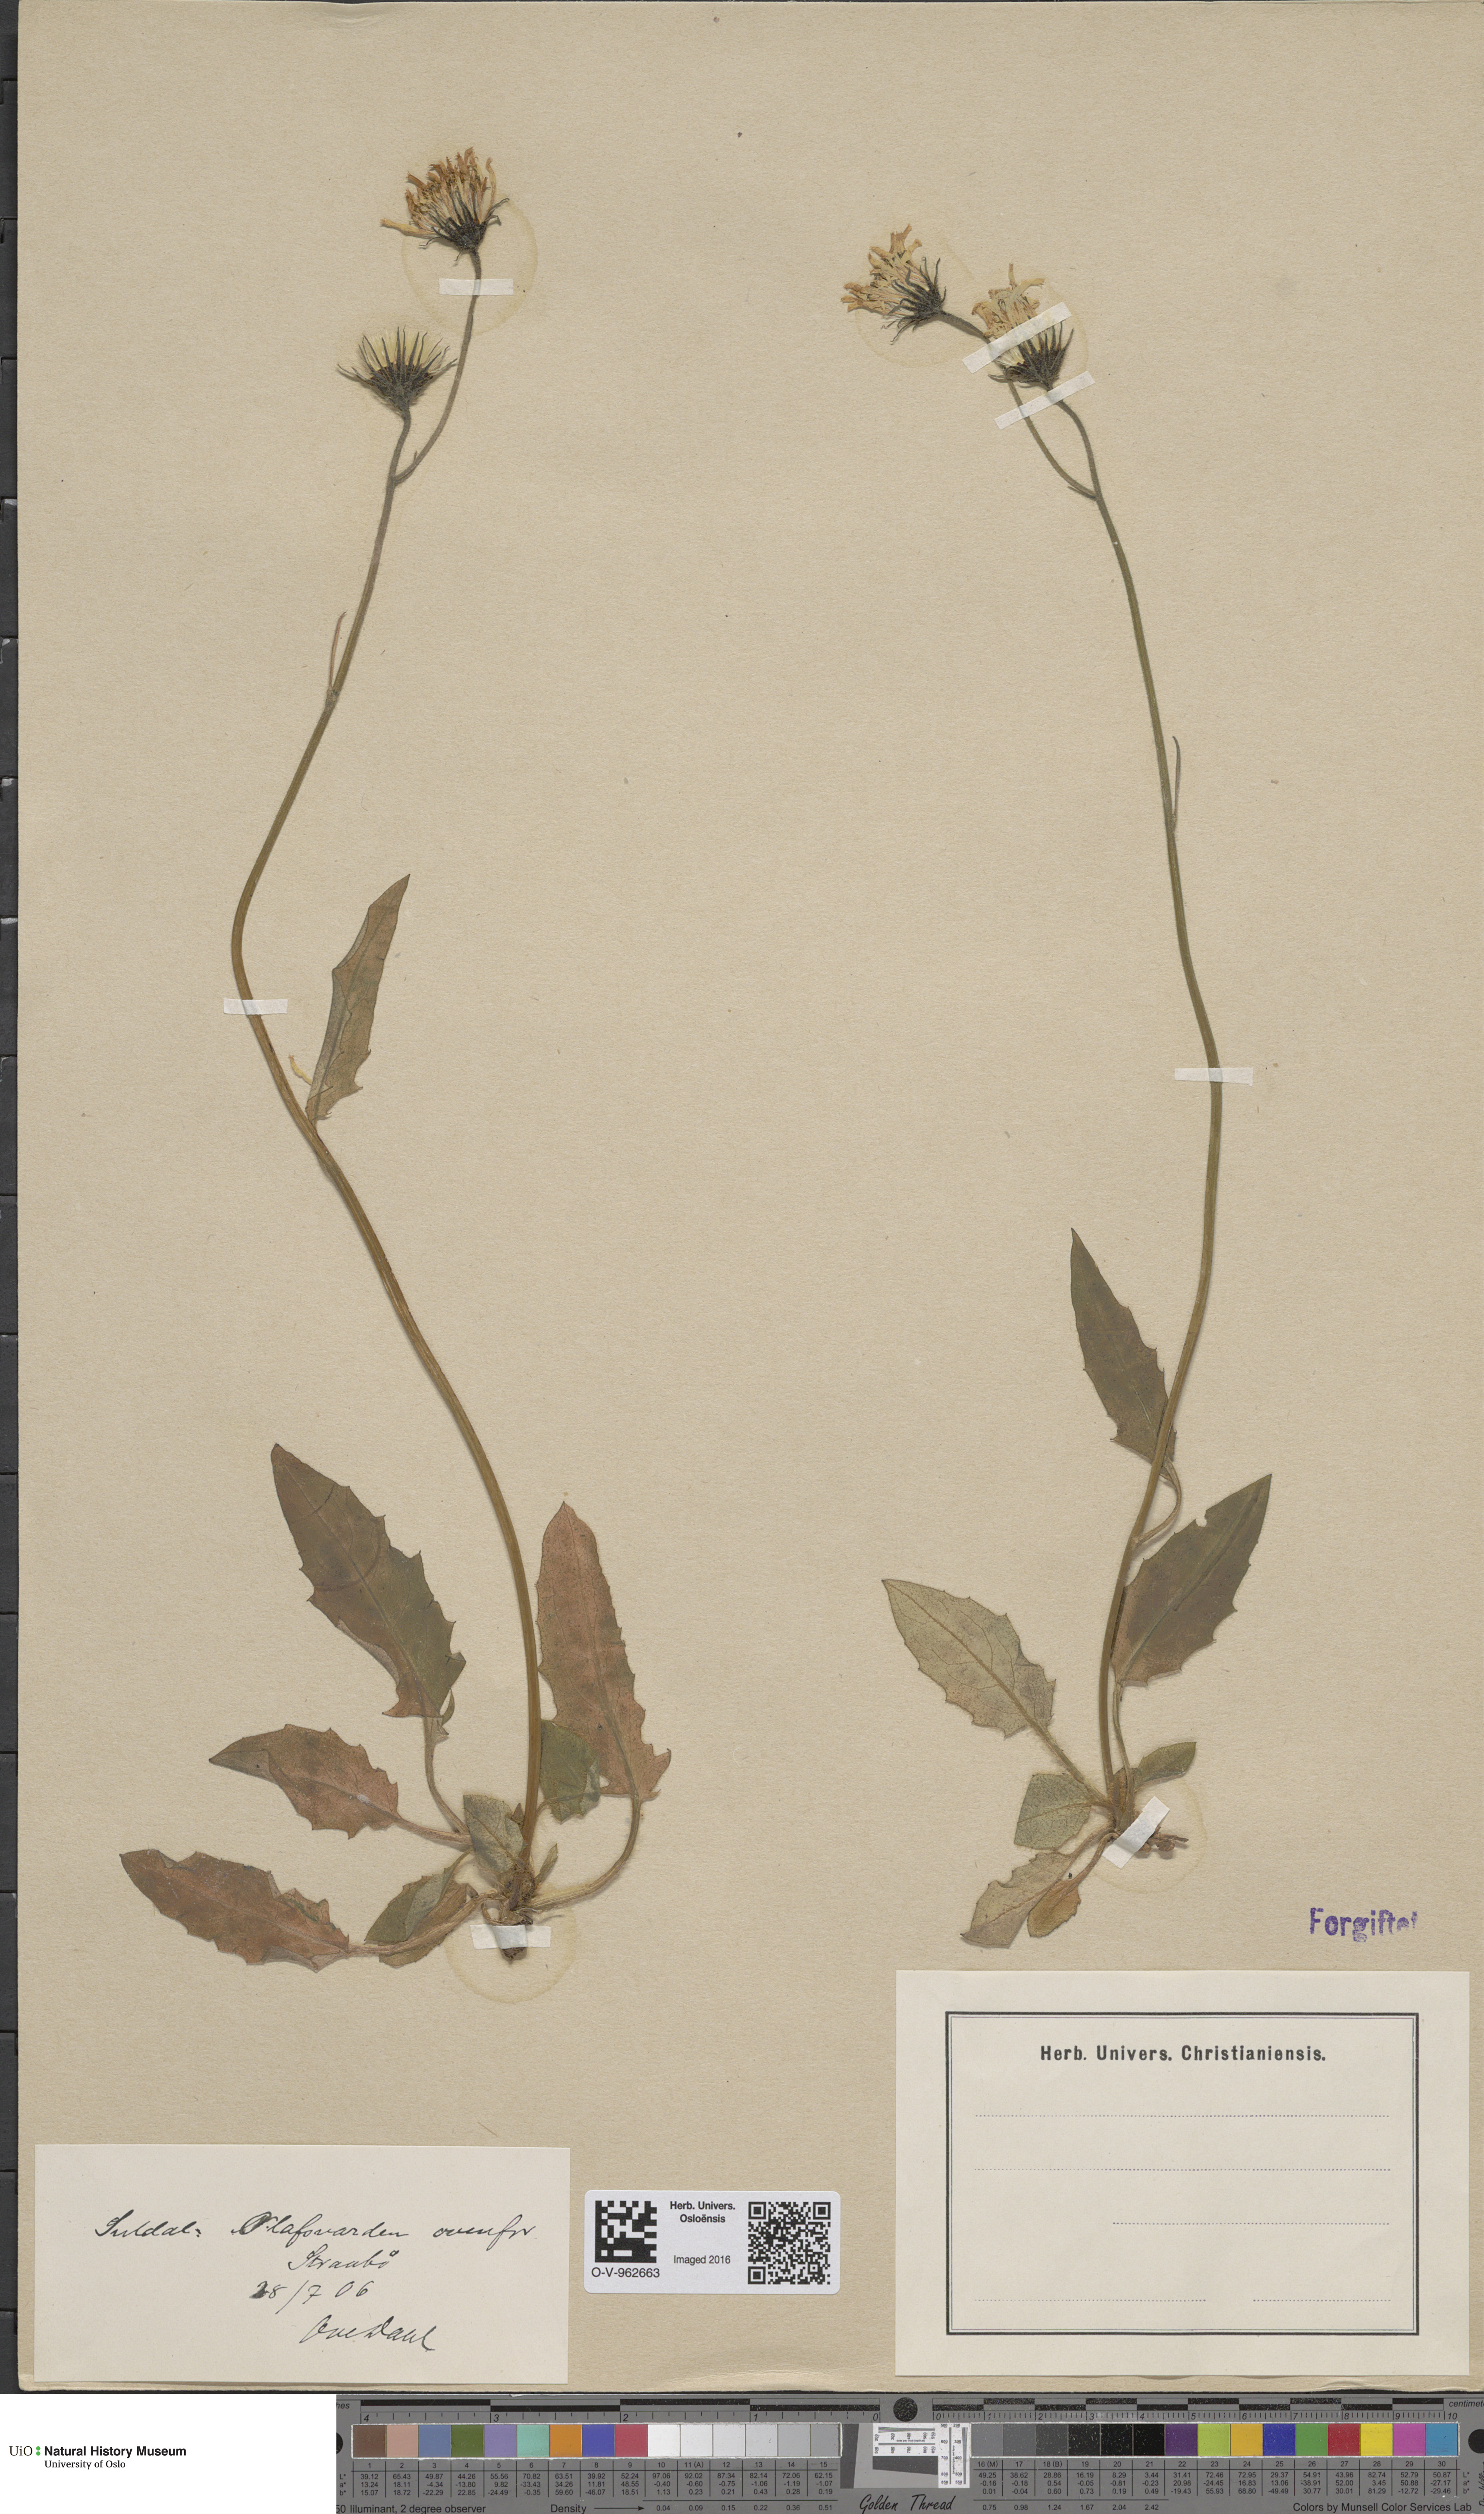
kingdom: Plantae
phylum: Tracheophyta
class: Magnoliopsida
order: Asterales
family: Asteraceae
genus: Hieracium
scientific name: Hieracium
